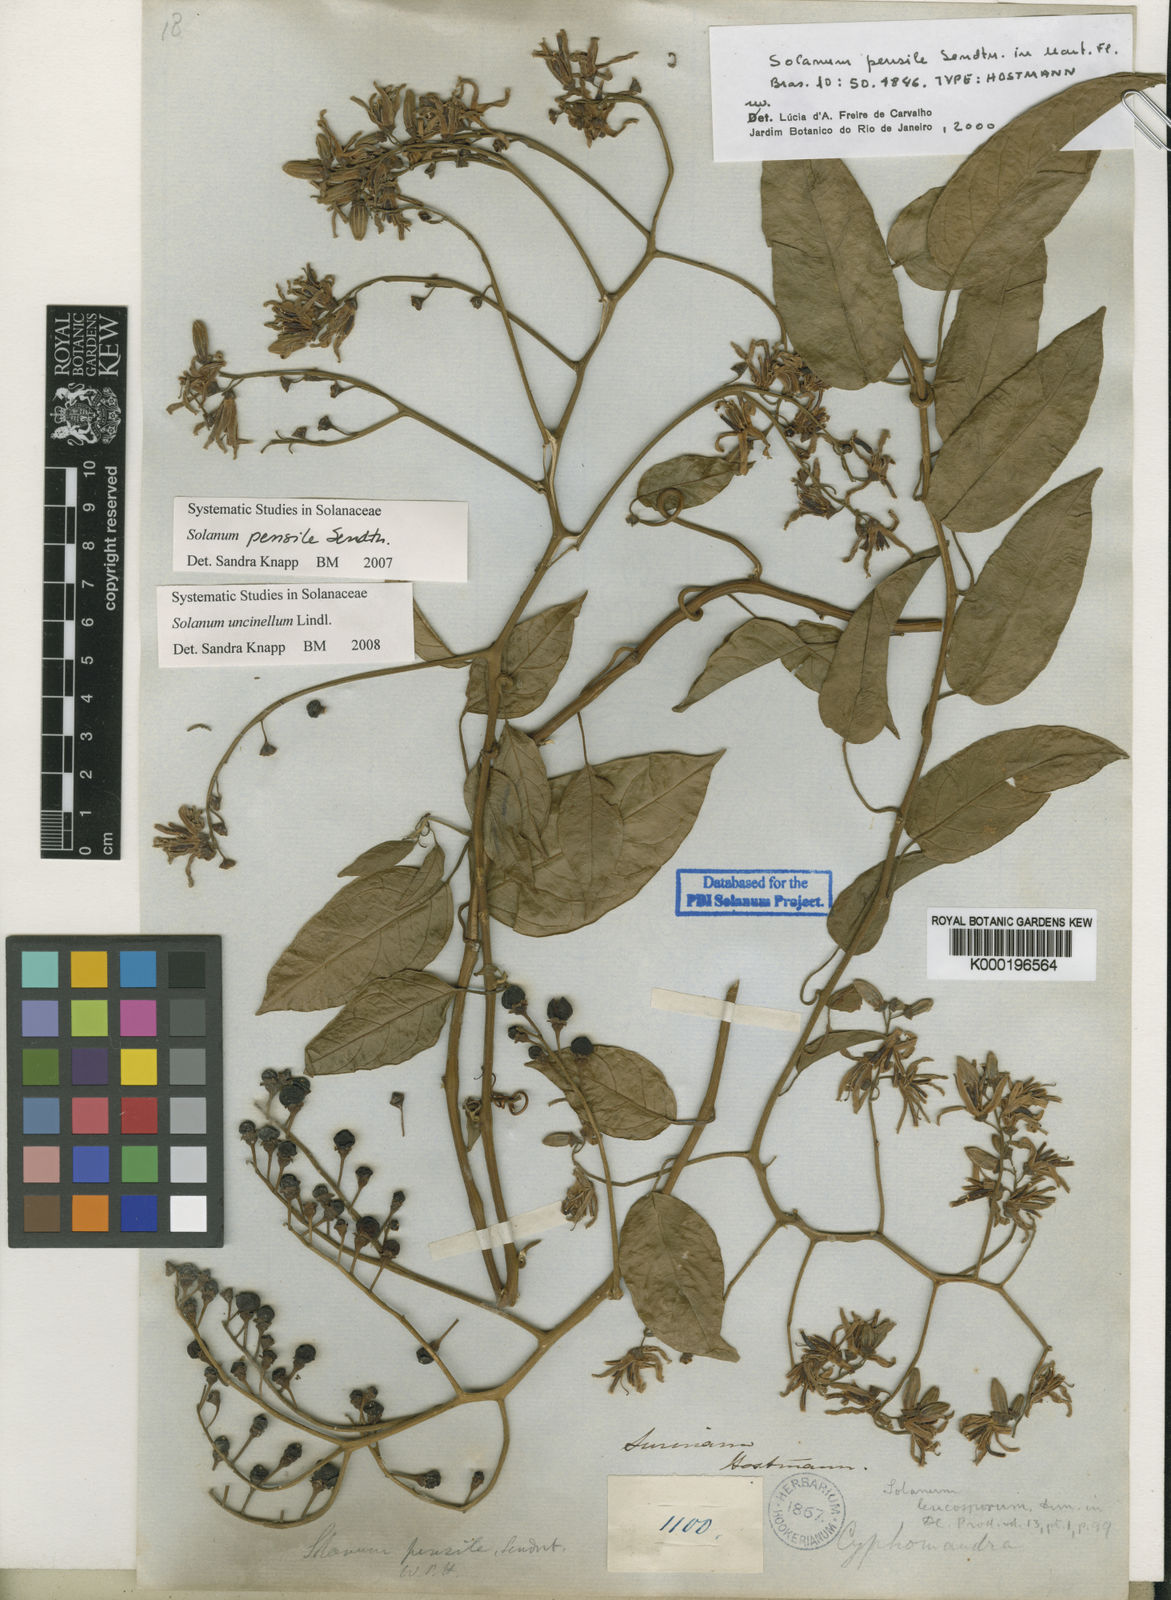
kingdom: Plantae
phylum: Tracheophyta
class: Magnoliopsida
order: Solanales
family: Solanaceae
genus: Solanum
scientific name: Solanum uncinellum
